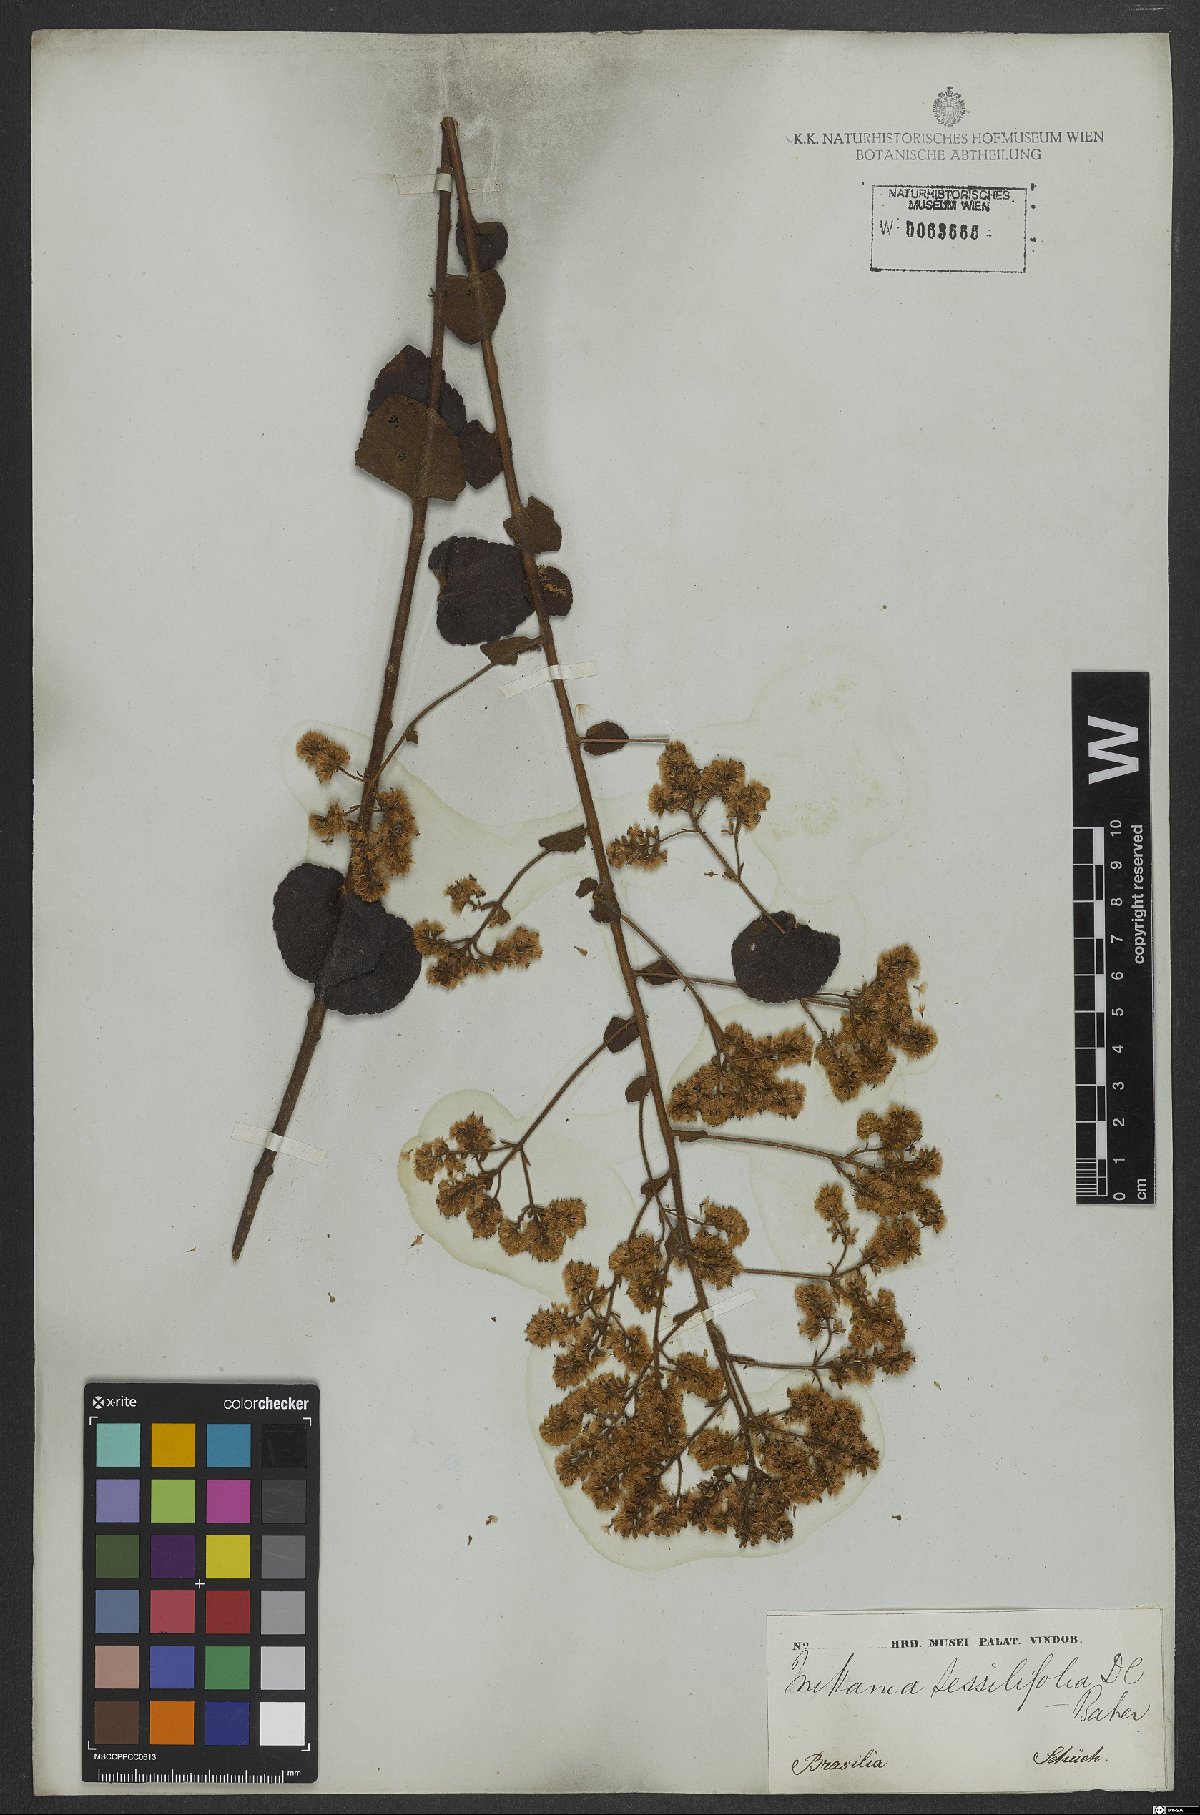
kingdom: Plantae
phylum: Tracheophyta
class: Magnoliopsida
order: Asterales
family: Asteraceae
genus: Mikania
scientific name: Mikania sessilifolia
